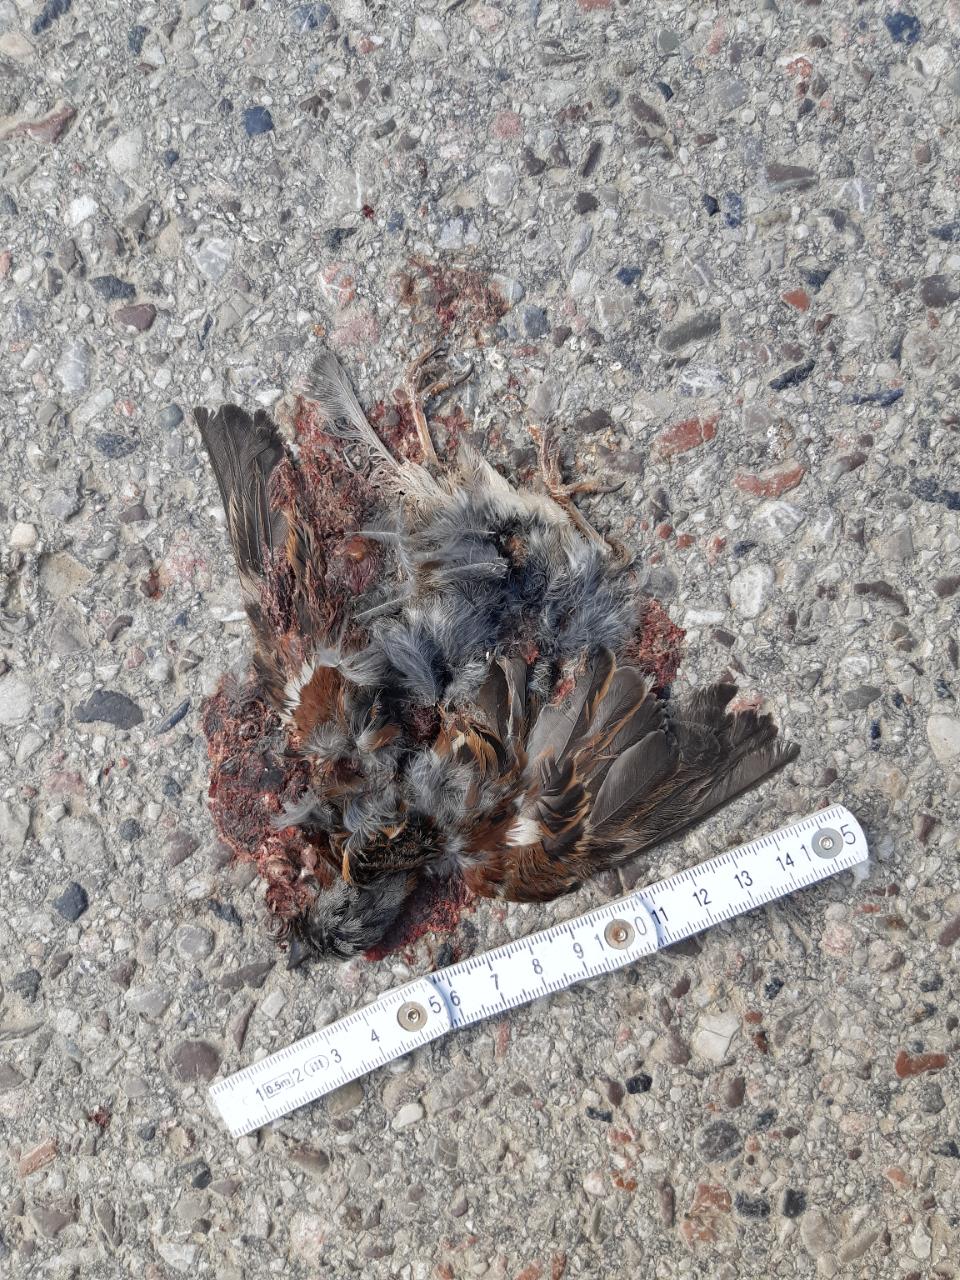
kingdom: Animalia
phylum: Chordata
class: Aves
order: Passeriformes
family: Passeridae
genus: Passer
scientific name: Passer
